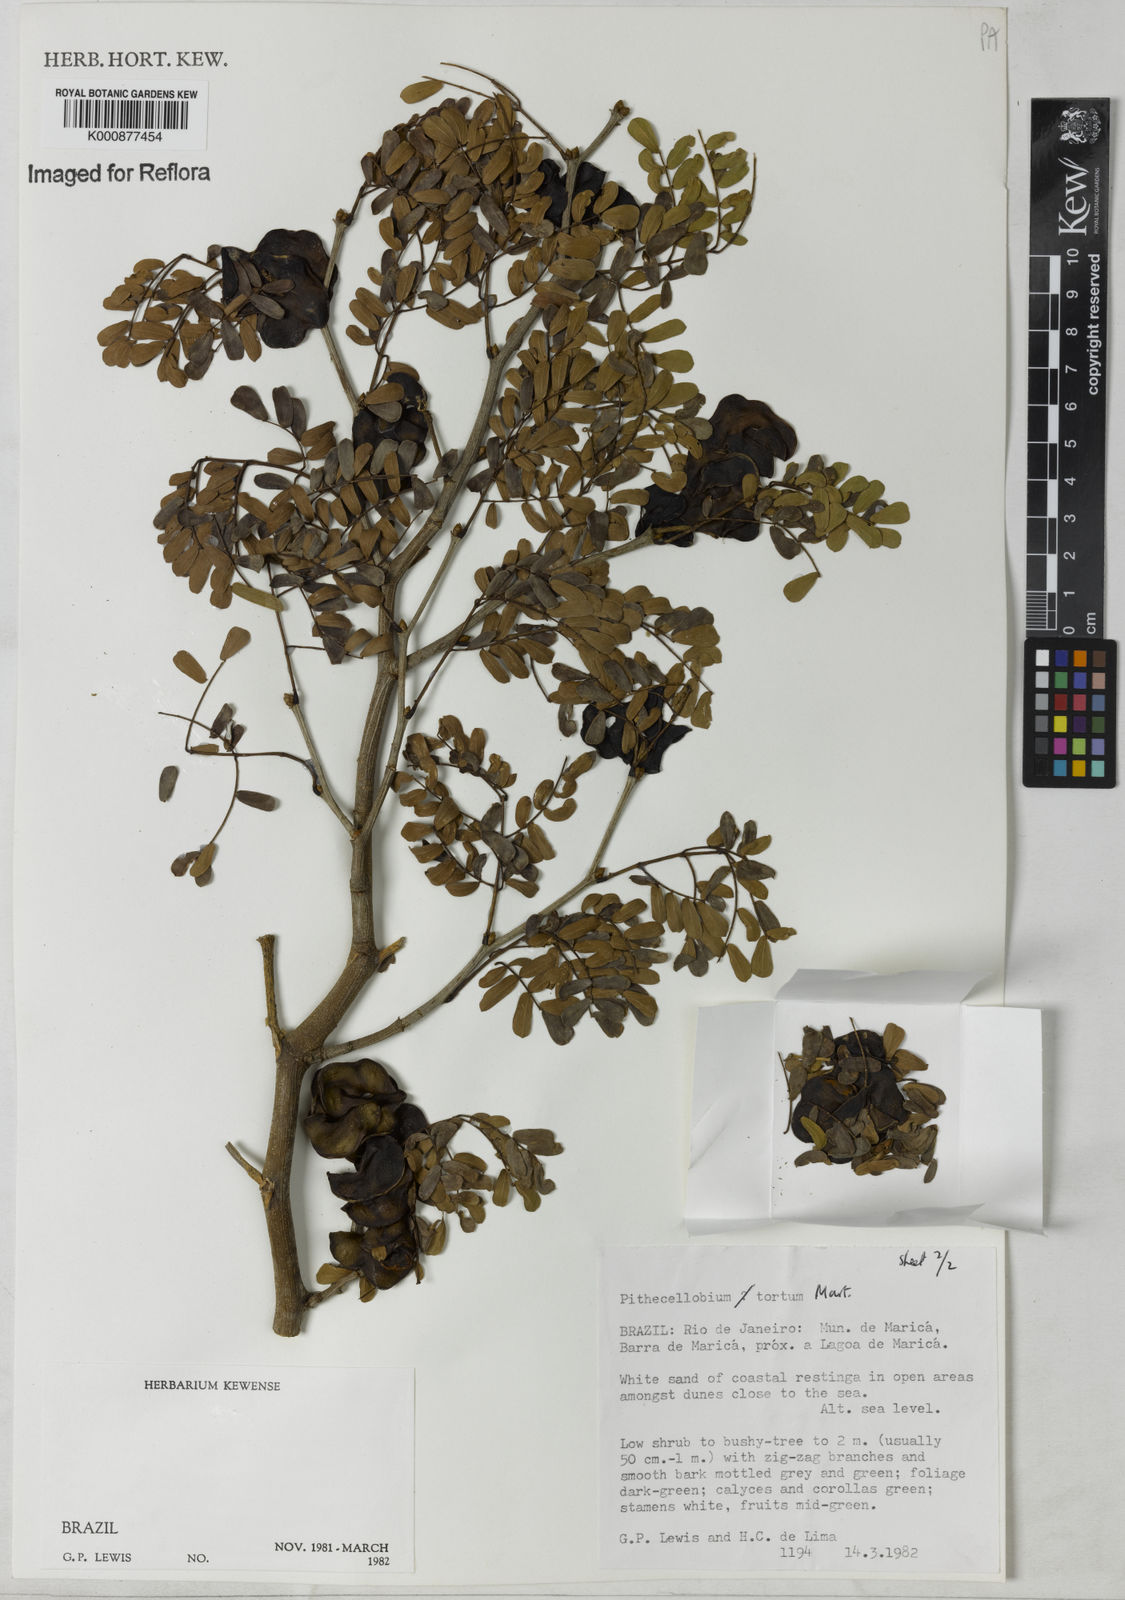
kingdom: Plantae
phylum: Tracheophyta
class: Magnoliopsida
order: Fabales
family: Fabaceae
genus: Chloroleucon
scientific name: Chloroleucon tortum
